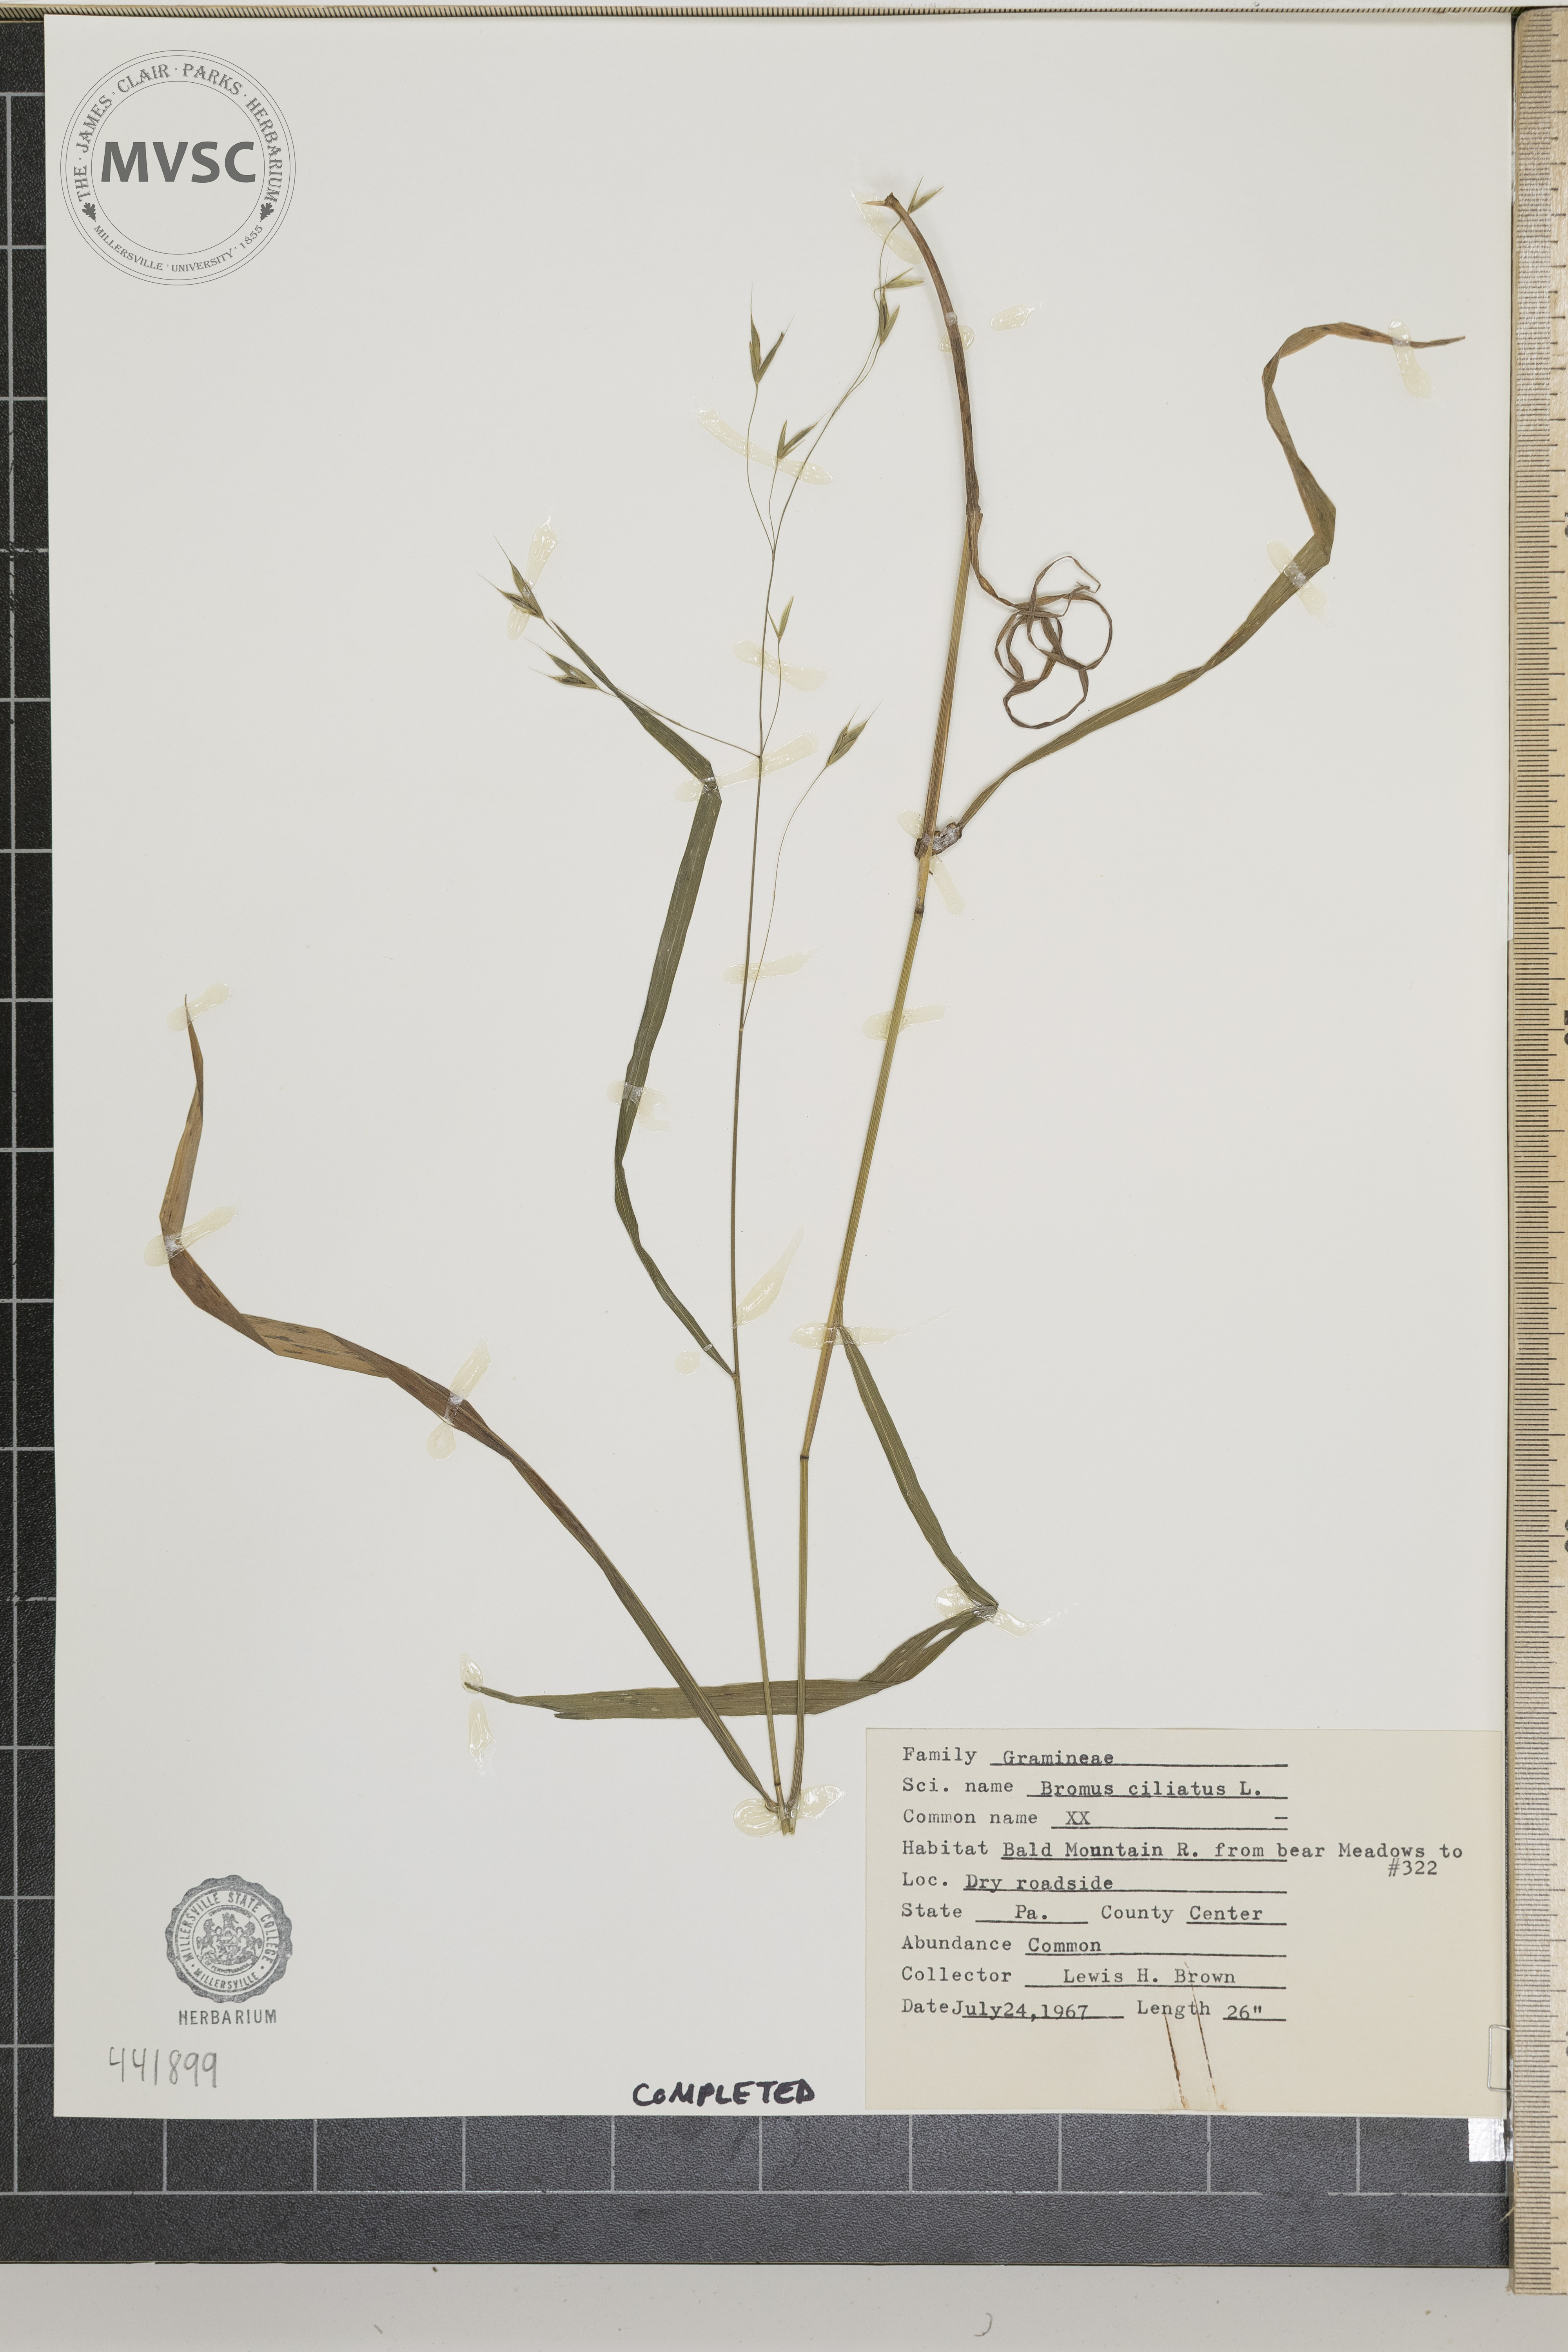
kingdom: Plantae
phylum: Tracheophyta
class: Liliopsida
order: Poales
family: Poaceae
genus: Bromus
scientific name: Bromus ciliatus
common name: Fringe brome
